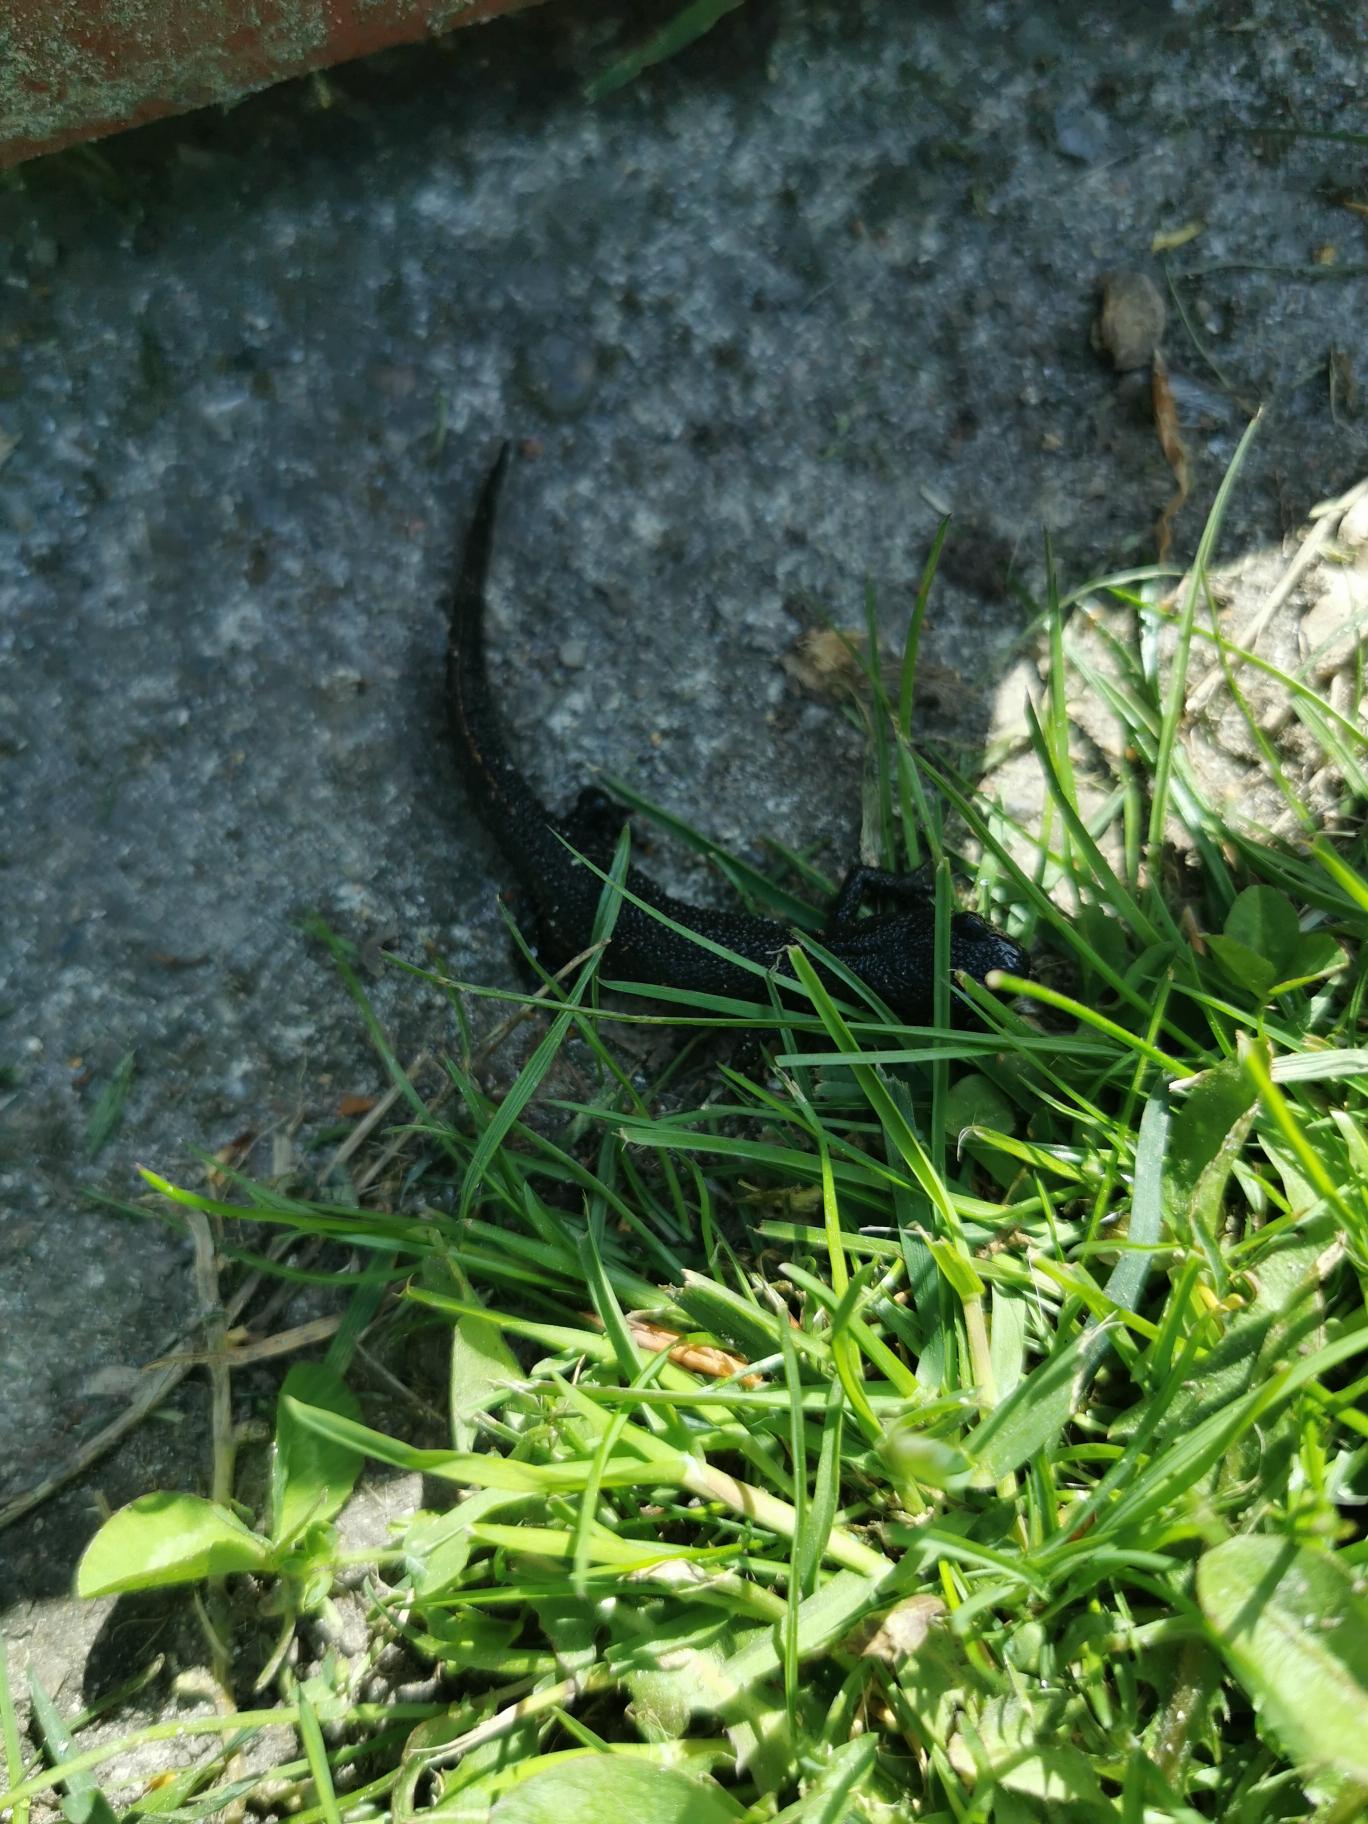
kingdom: Animalia
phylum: Chordata
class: Amphibia
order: Caudata
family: Salamandridae
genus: Triturus
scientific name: Triturus cristatus
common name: Stor vandsalamander
